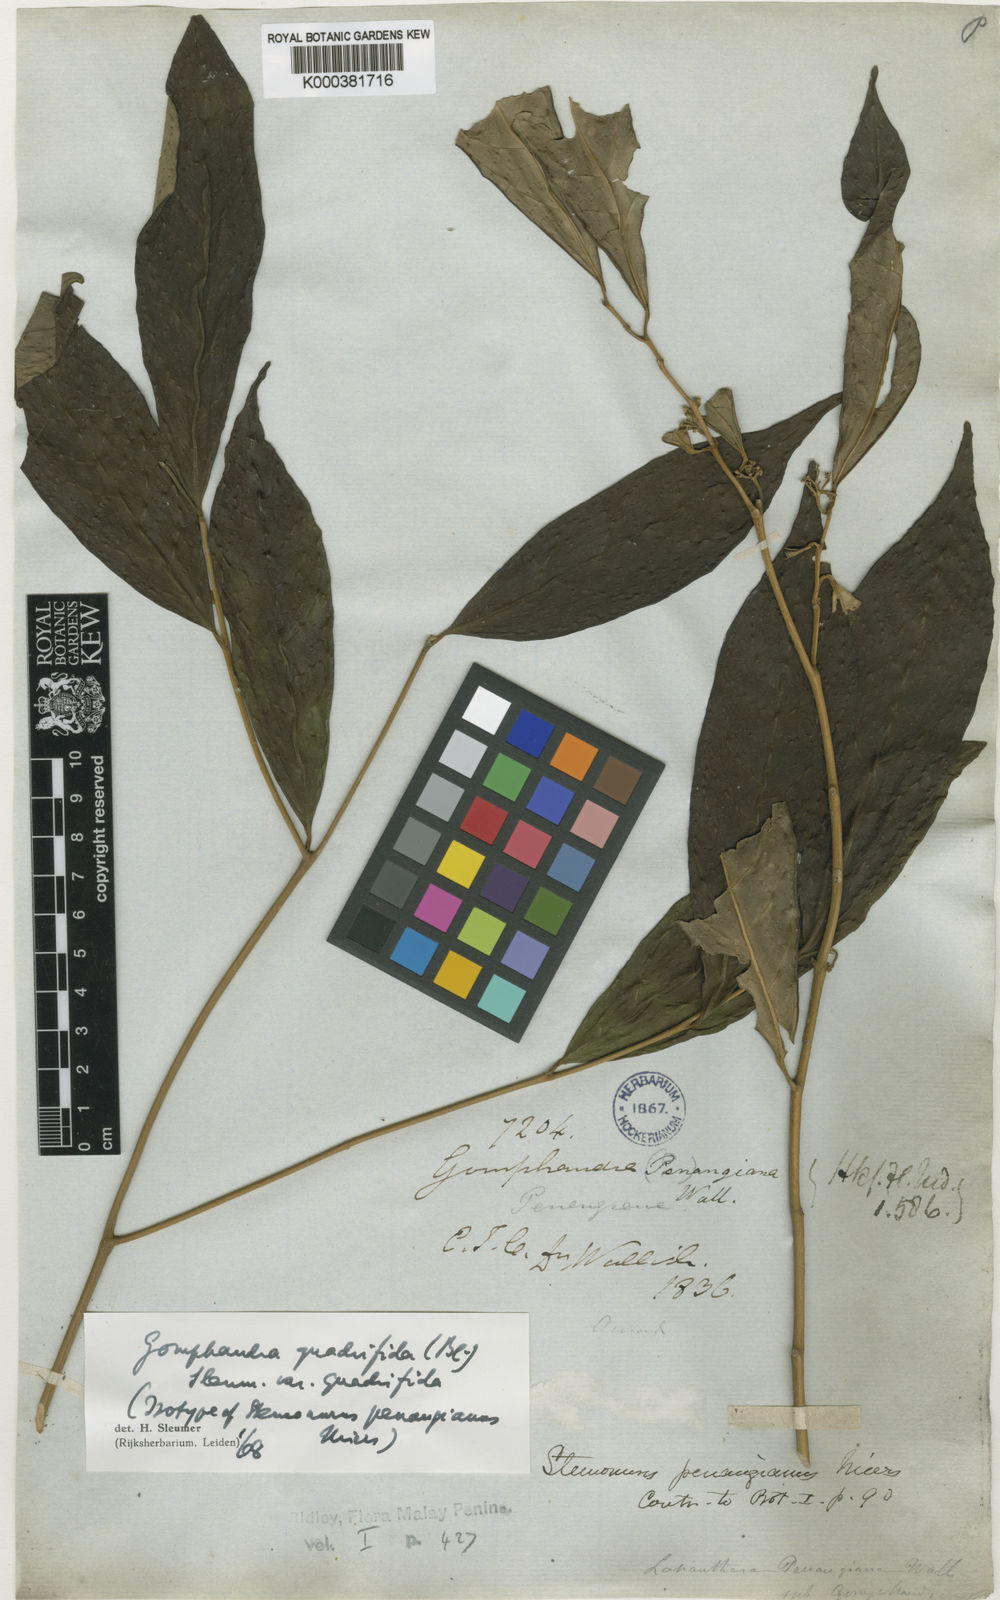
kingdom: Plantae
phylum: Tracheophyta
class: Magnoliopsida
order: Cardiopteridales
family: Stemonuraceae
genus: Gomphandra
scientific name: Gomphandra quadrifida
